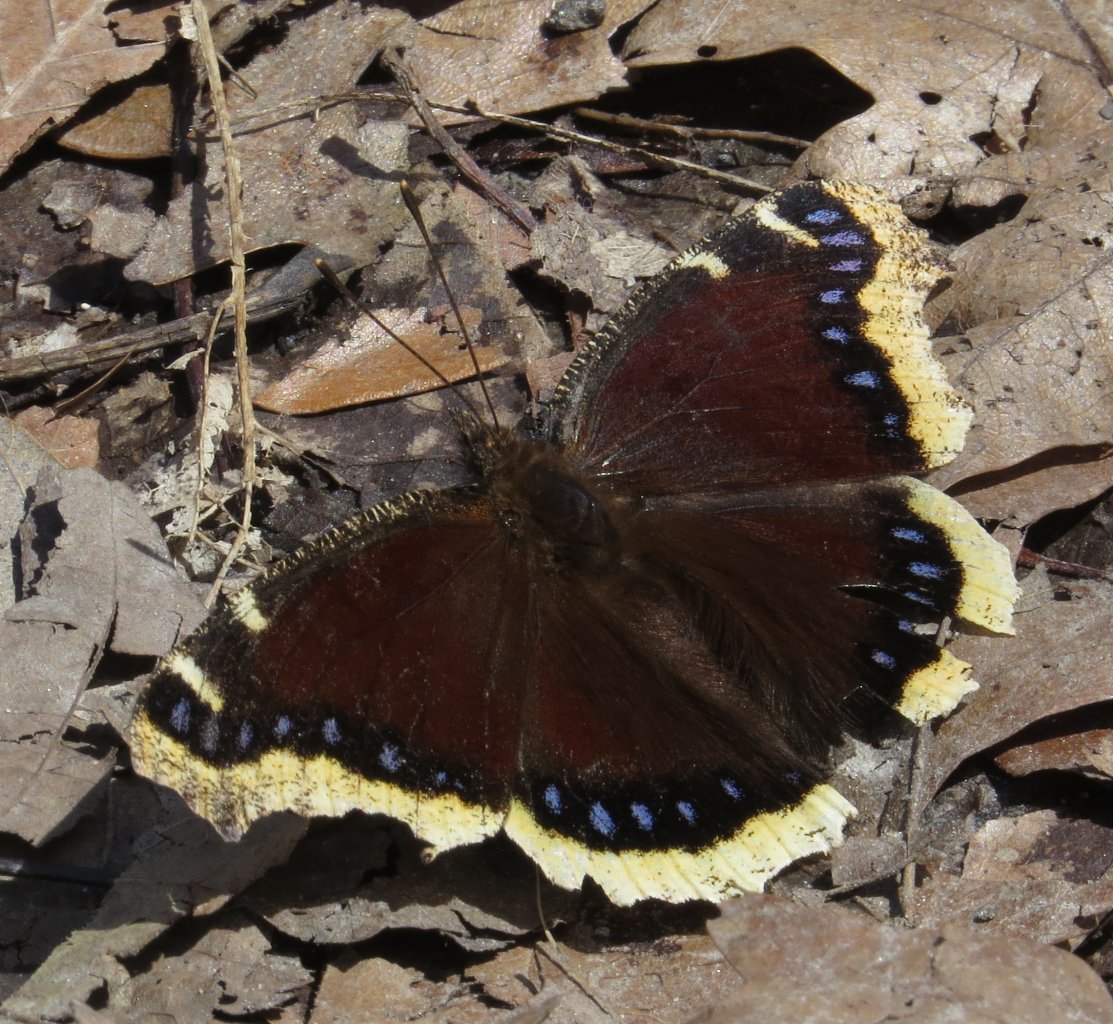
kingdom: Animalia
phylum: Arthropoda
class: Insecta
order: Lepidoptera
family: Nymphalidae
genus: Nymphalis
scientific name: Nymphalis antiopa
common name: Mourning Cloak
